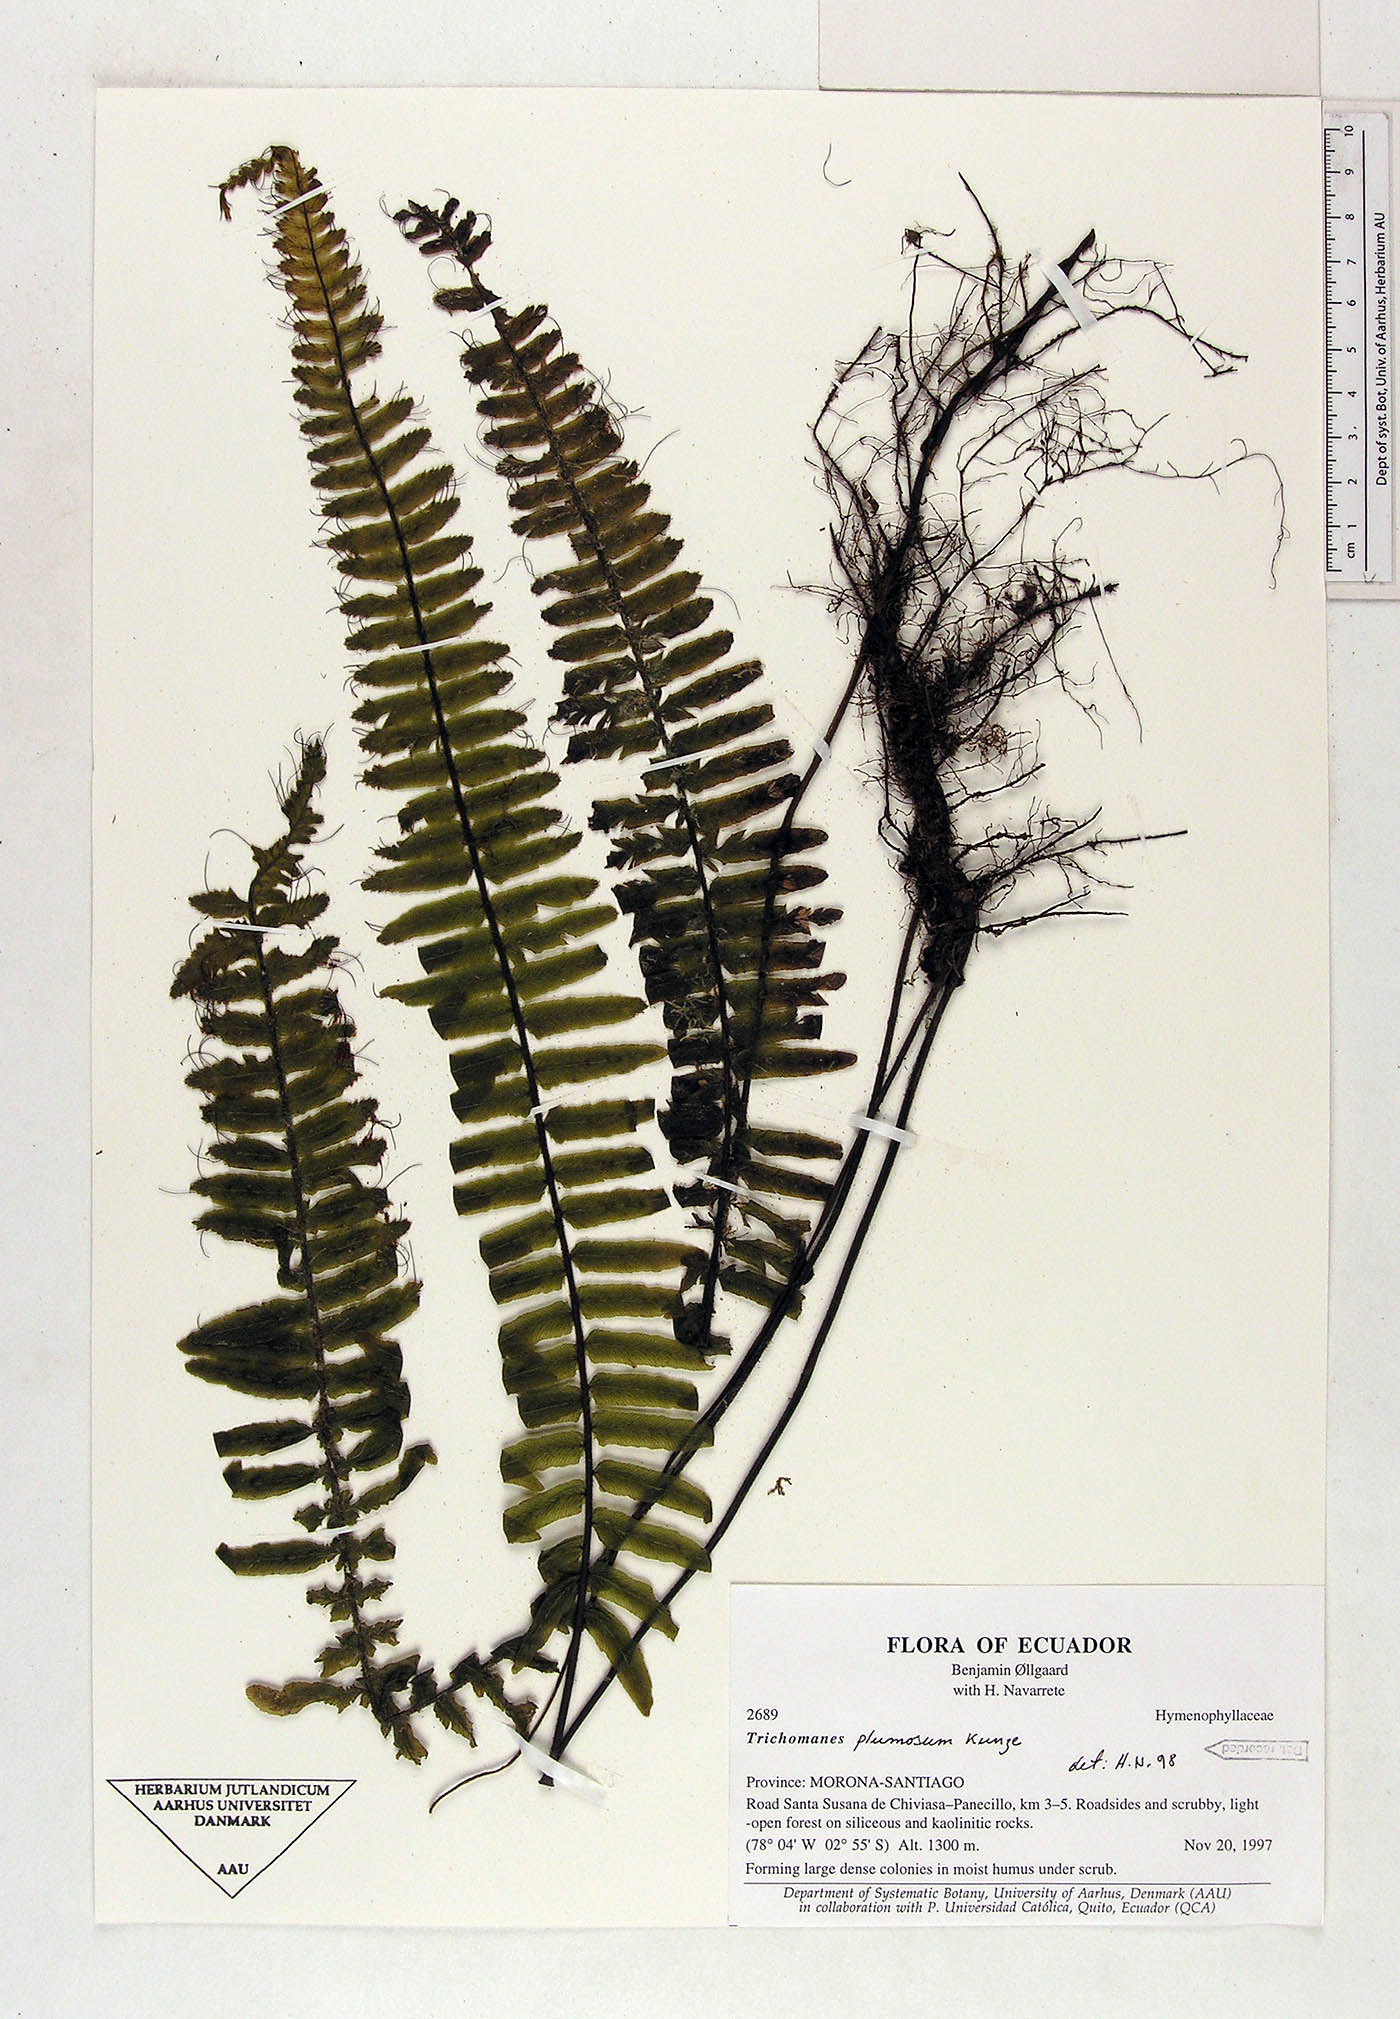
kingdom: Plantae
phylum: Tracheophyta
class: Polypodiopsida
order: Hymenophyllales
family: Hymenophyllaceae
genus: Trichomanes
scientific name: Trichomanes plumosum
